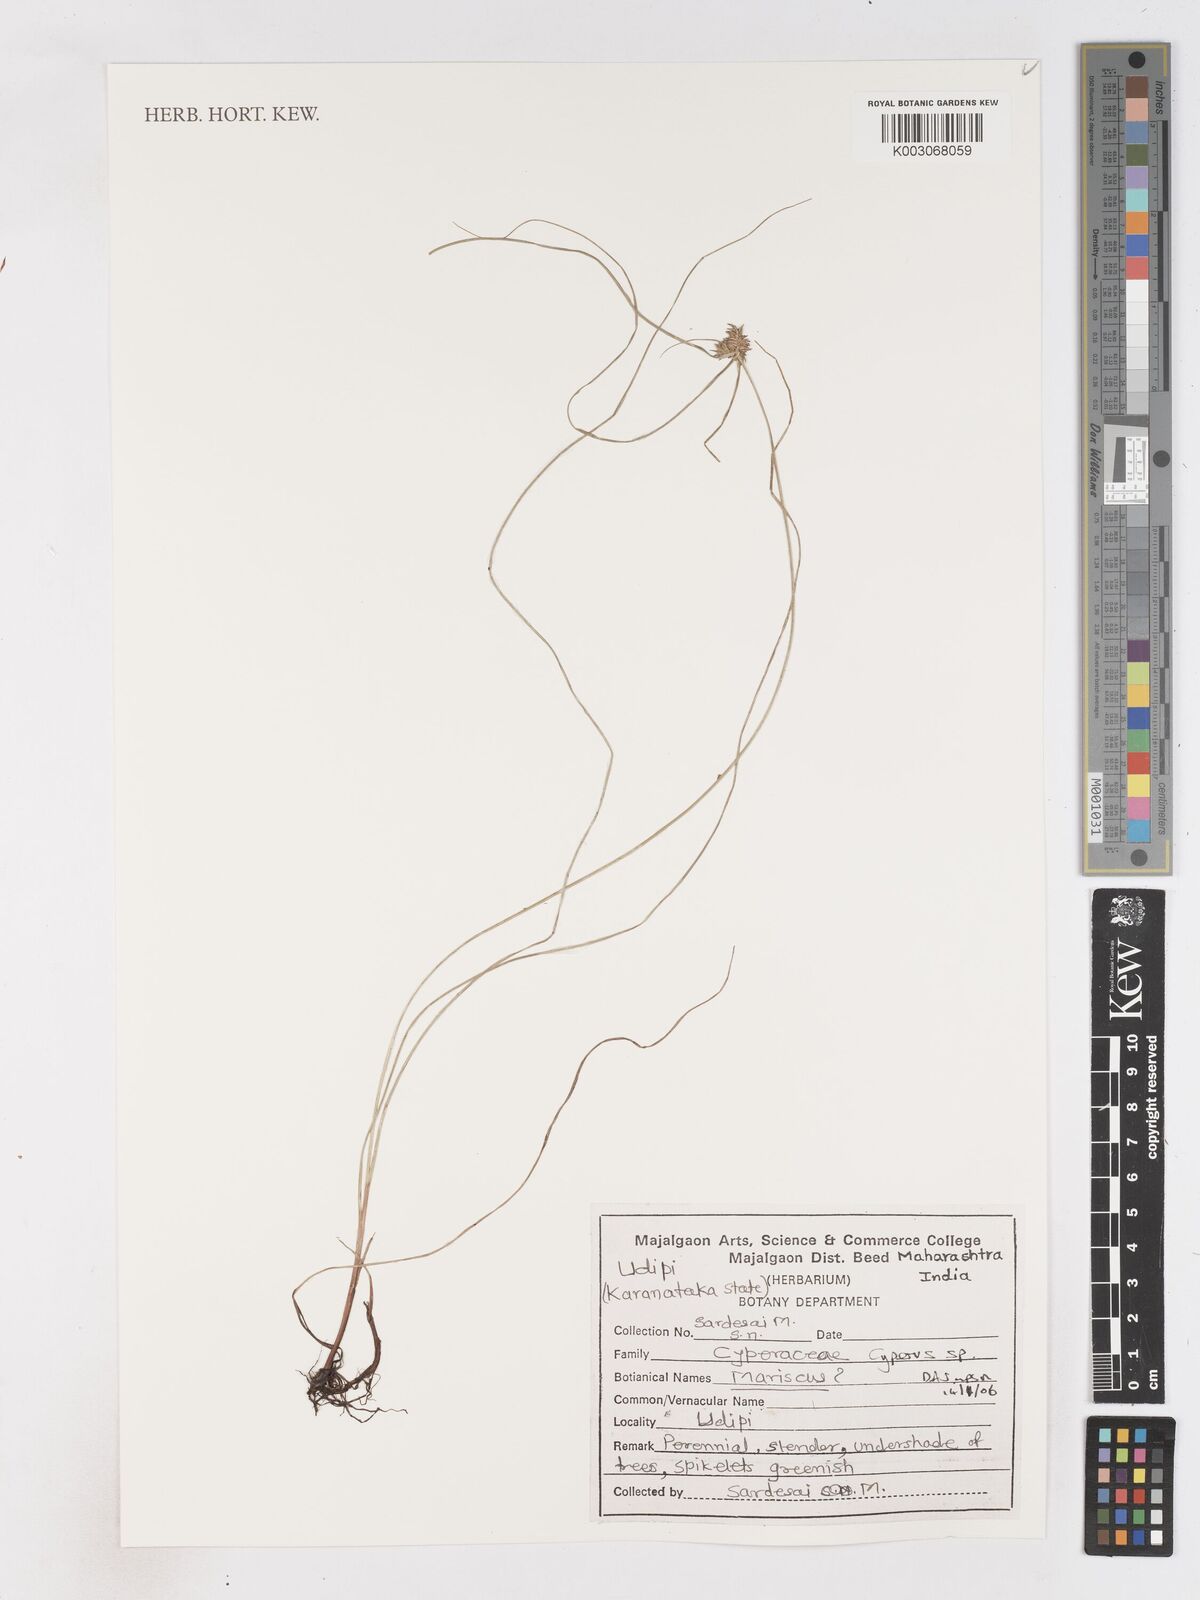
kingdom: Plantae
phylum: Tracheophyta
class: Liliopsida
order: Poales
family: Cyperaceae
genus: Cyperus
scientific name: Cyperus
